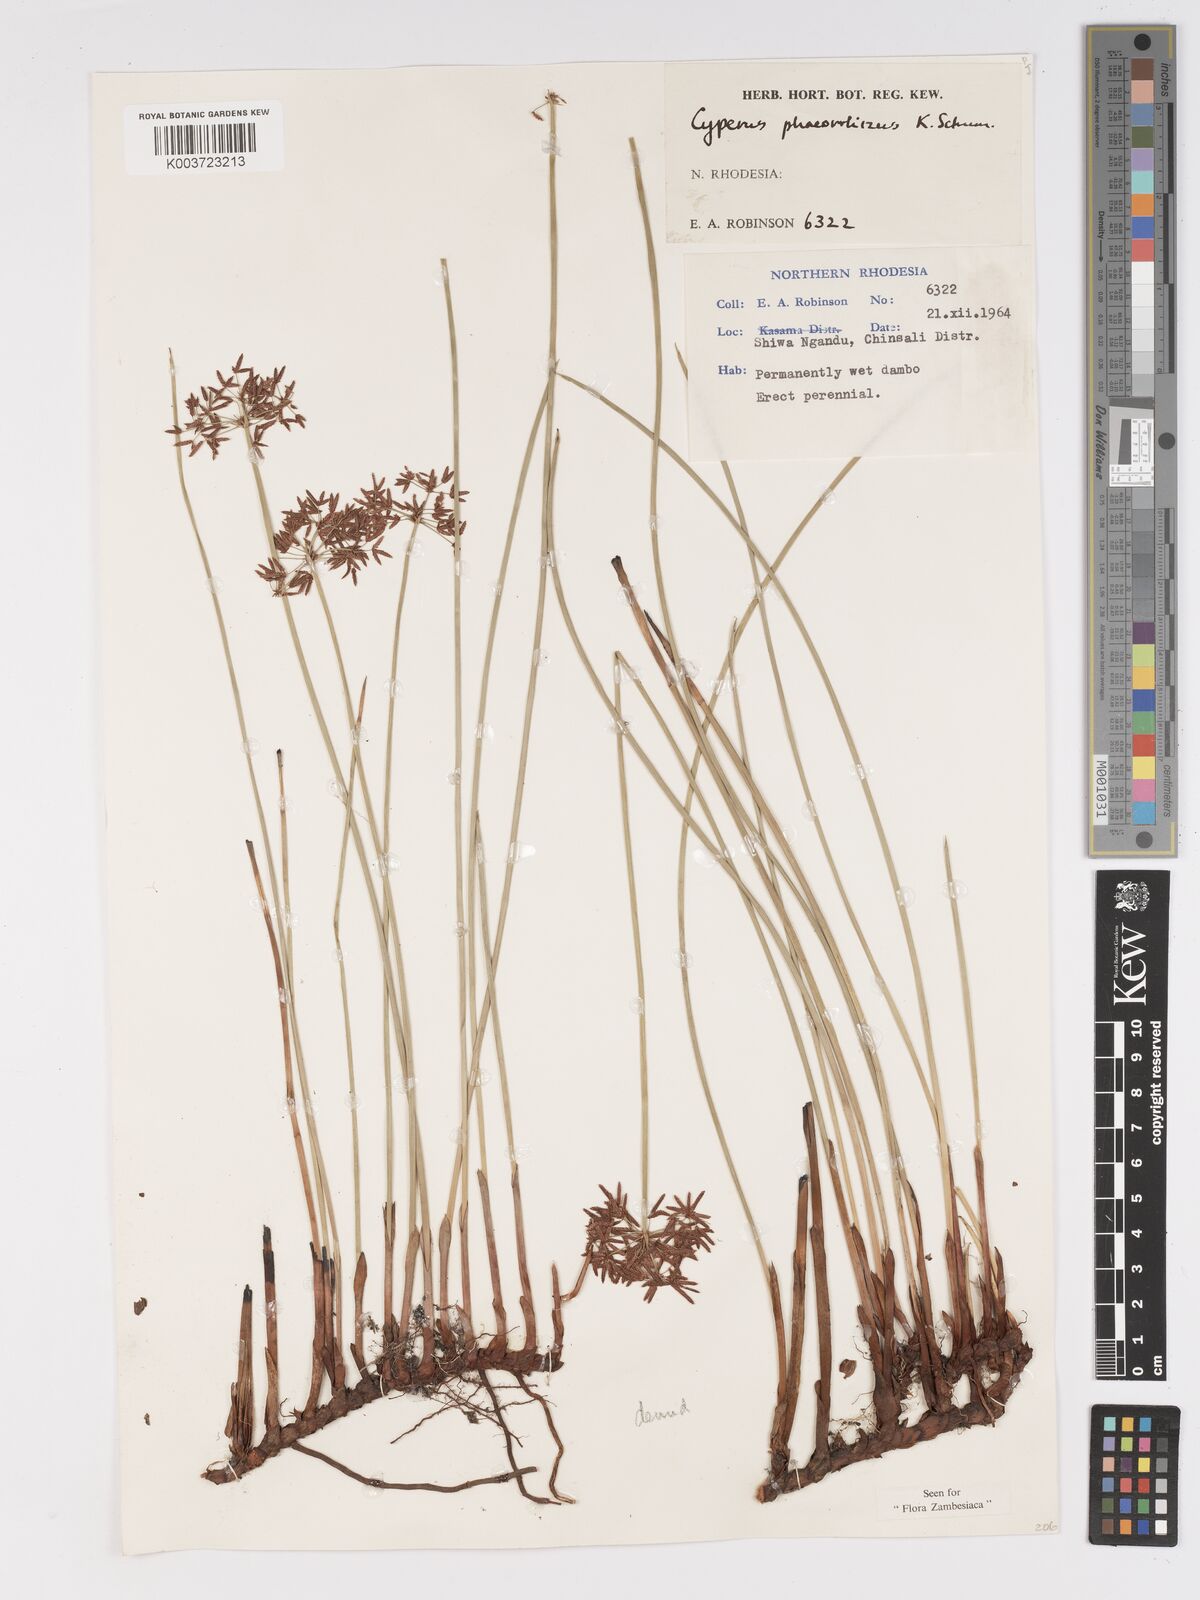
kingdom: Plantae
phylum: Tracheophyta
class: Liliopsida
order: Poales
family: Cyperaceae
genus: Cyperus
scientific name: Cyperus haspan
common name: Haspan flatsedge
